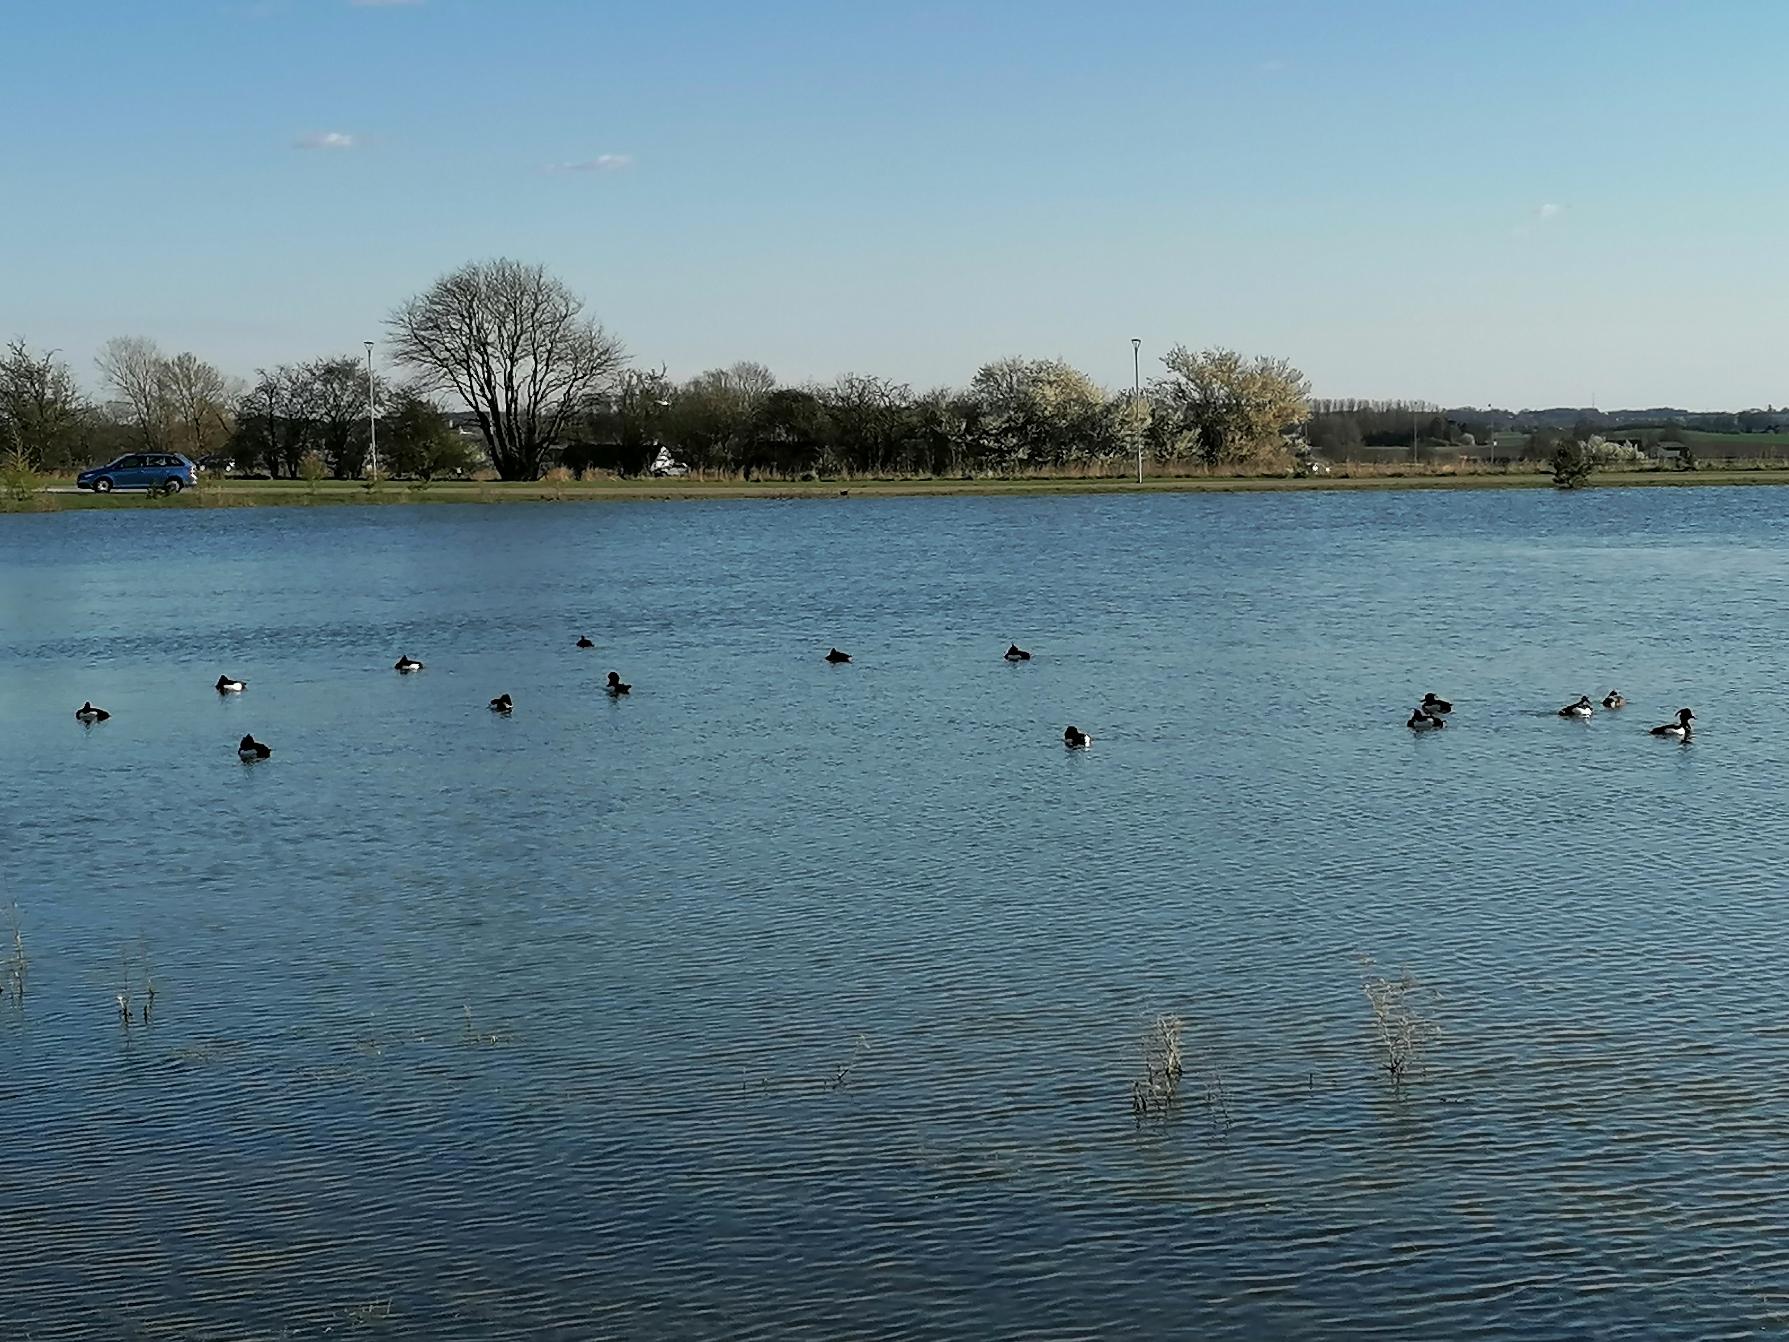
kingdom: Animalia
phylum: Chordata
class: Aves
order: Anseriformes
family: Anatidae
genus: Aythya
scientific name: Aythya fuligula
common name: Troldand
